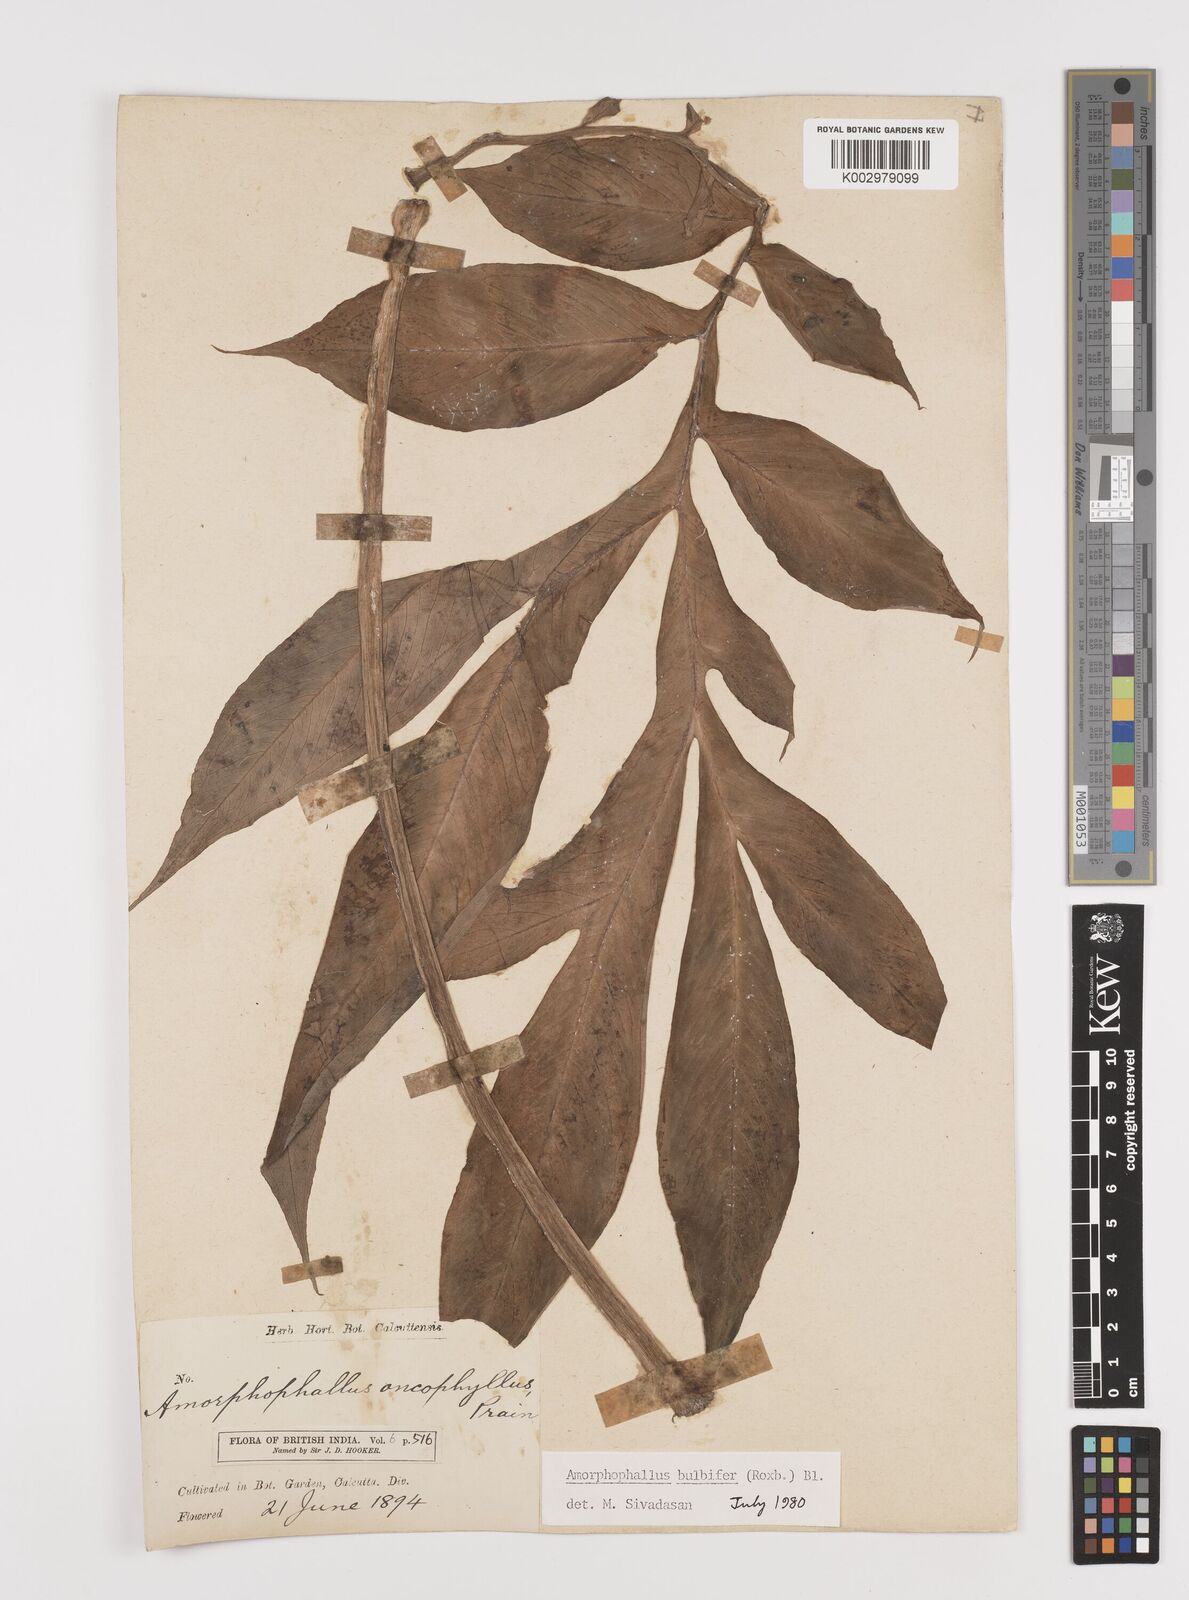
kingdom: Plantae
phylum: Tracheophyta
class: Liliopsida
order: Alismatales
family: Araceae
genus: Amorphophallus
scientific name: Amorphophallus bulbifer
